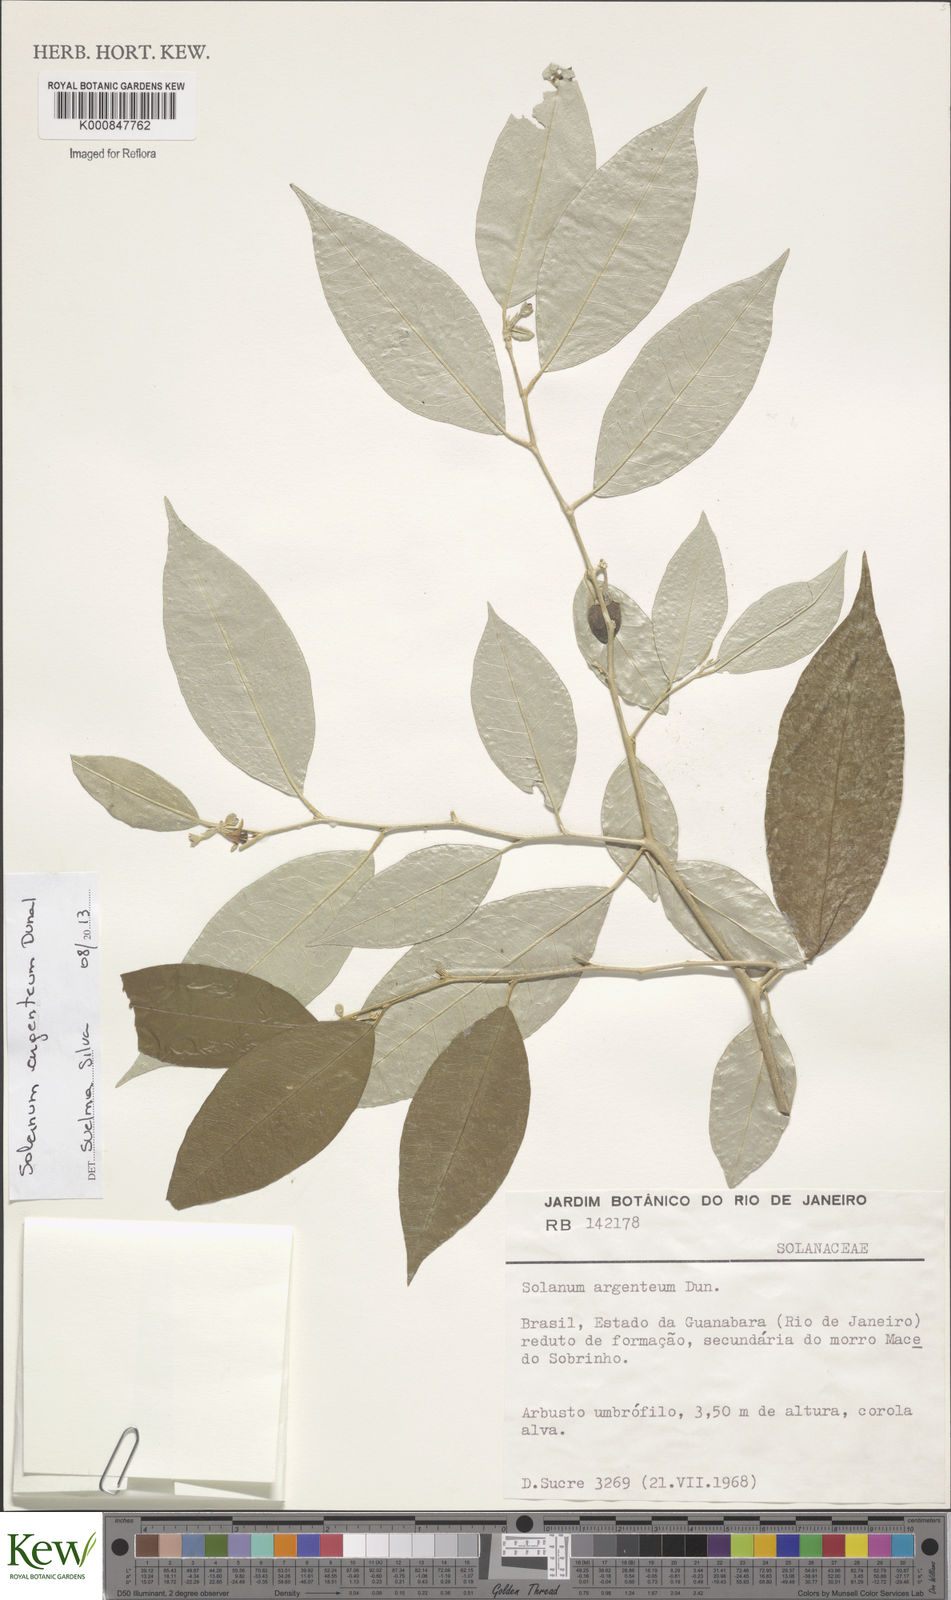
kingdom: Plantae
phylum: Tracheophyta
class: Magnoliopsida
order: Solanales
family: Solanaceae
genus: Solanum
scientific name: Solanum swartzianum
